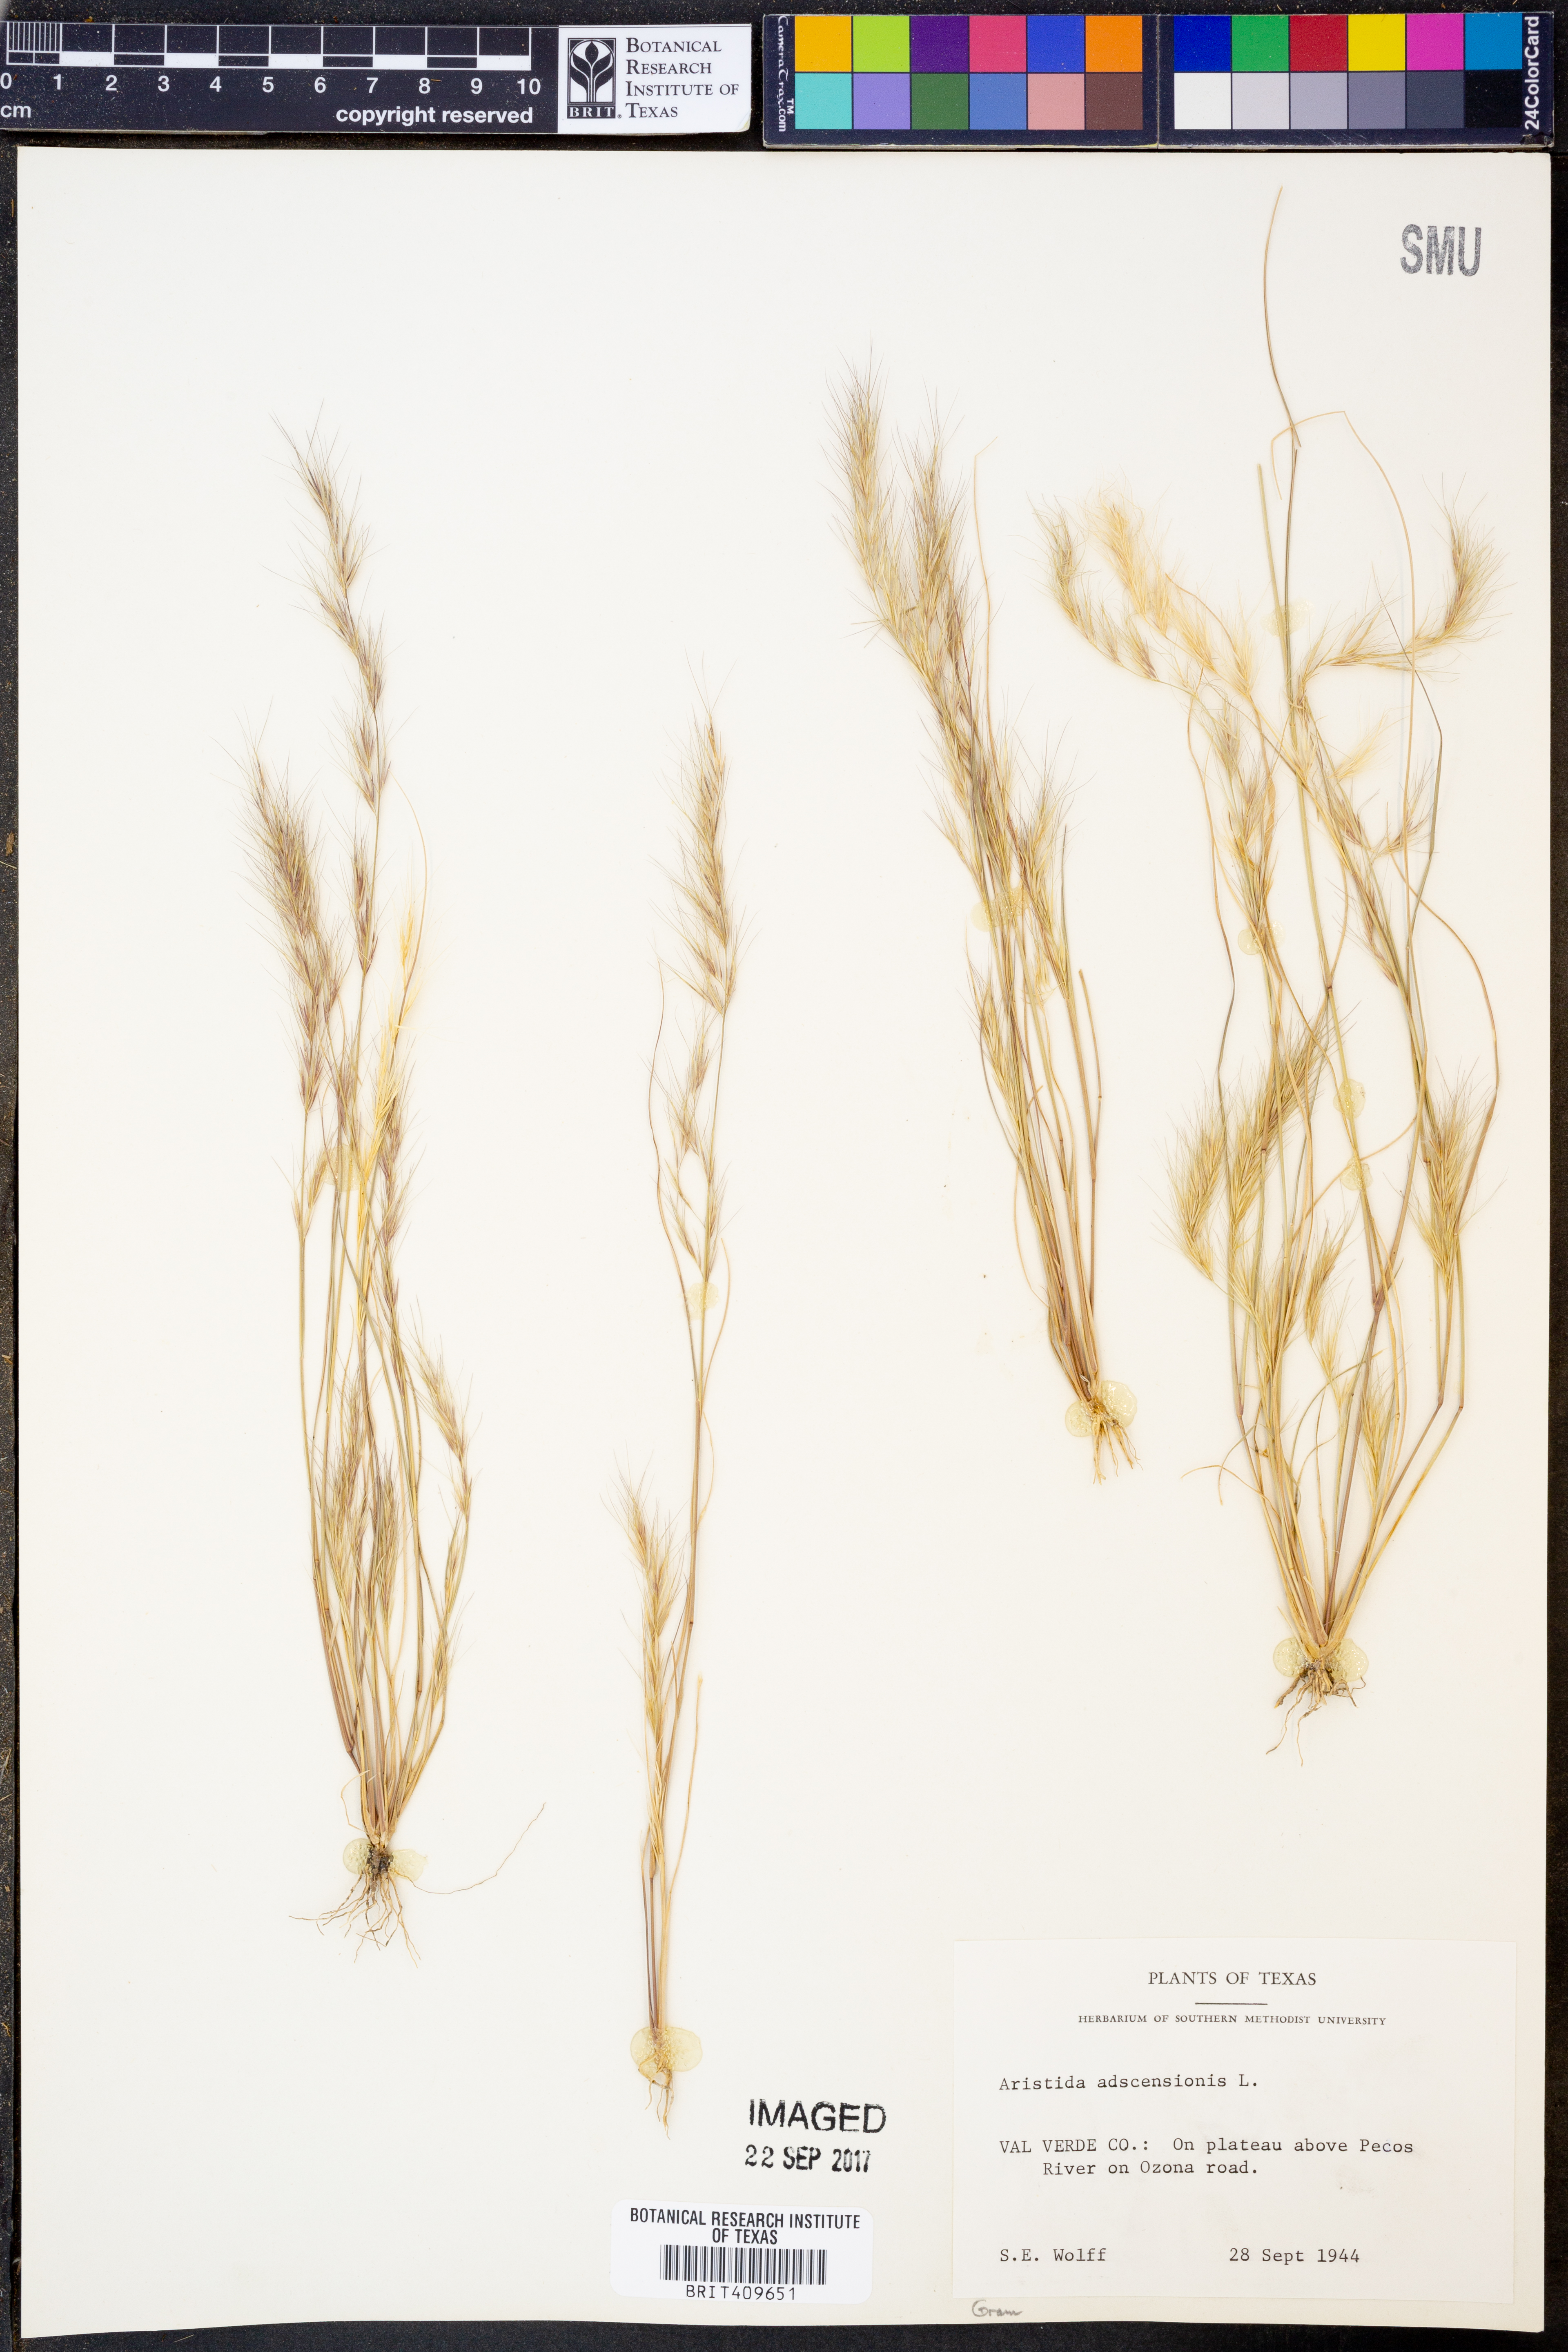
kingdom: Plantae
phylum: Tracheophyta
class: Liliopsida
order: Poales
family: Poaceae
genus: Aristida
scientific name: Aristida adscensionis
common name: Sixweeks threeawn
